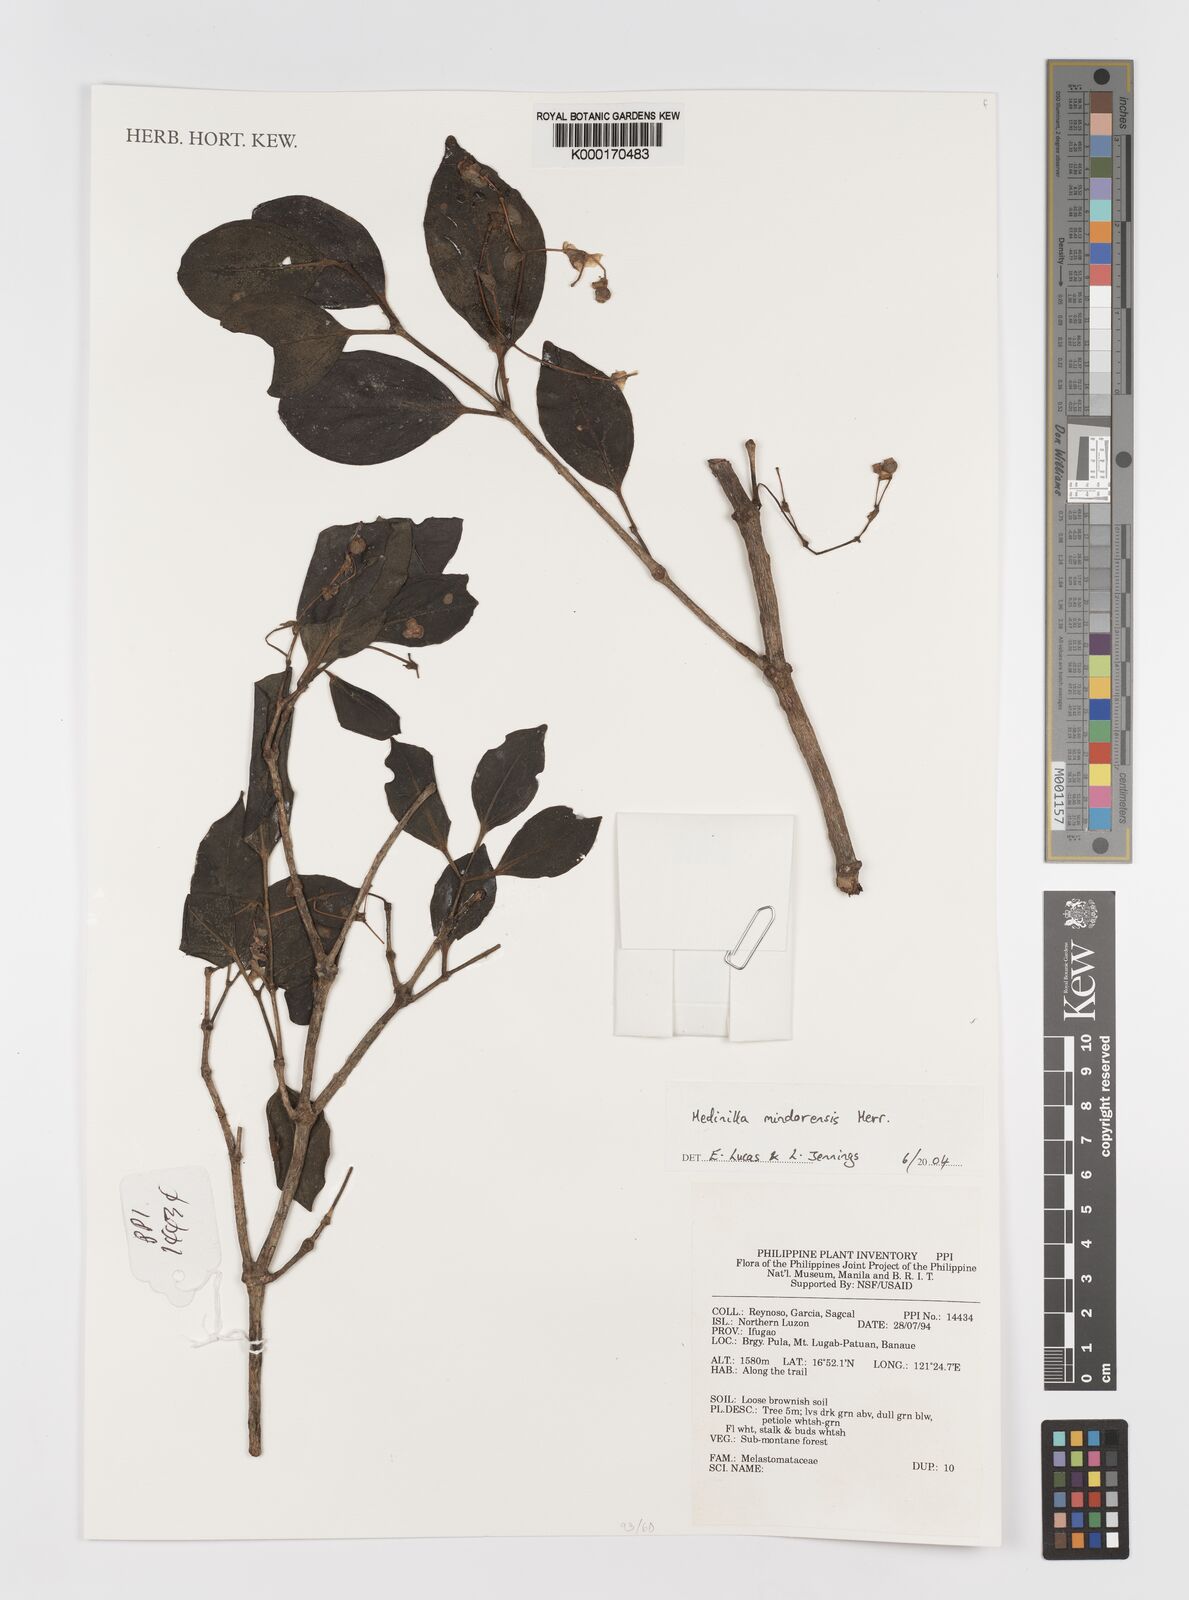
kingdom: Plantae
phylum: Tracheophyta
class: Magnoliopsida
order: Myrtales
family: Melastomataceae
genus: Medinilla
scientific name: Medinilla mindorensis
